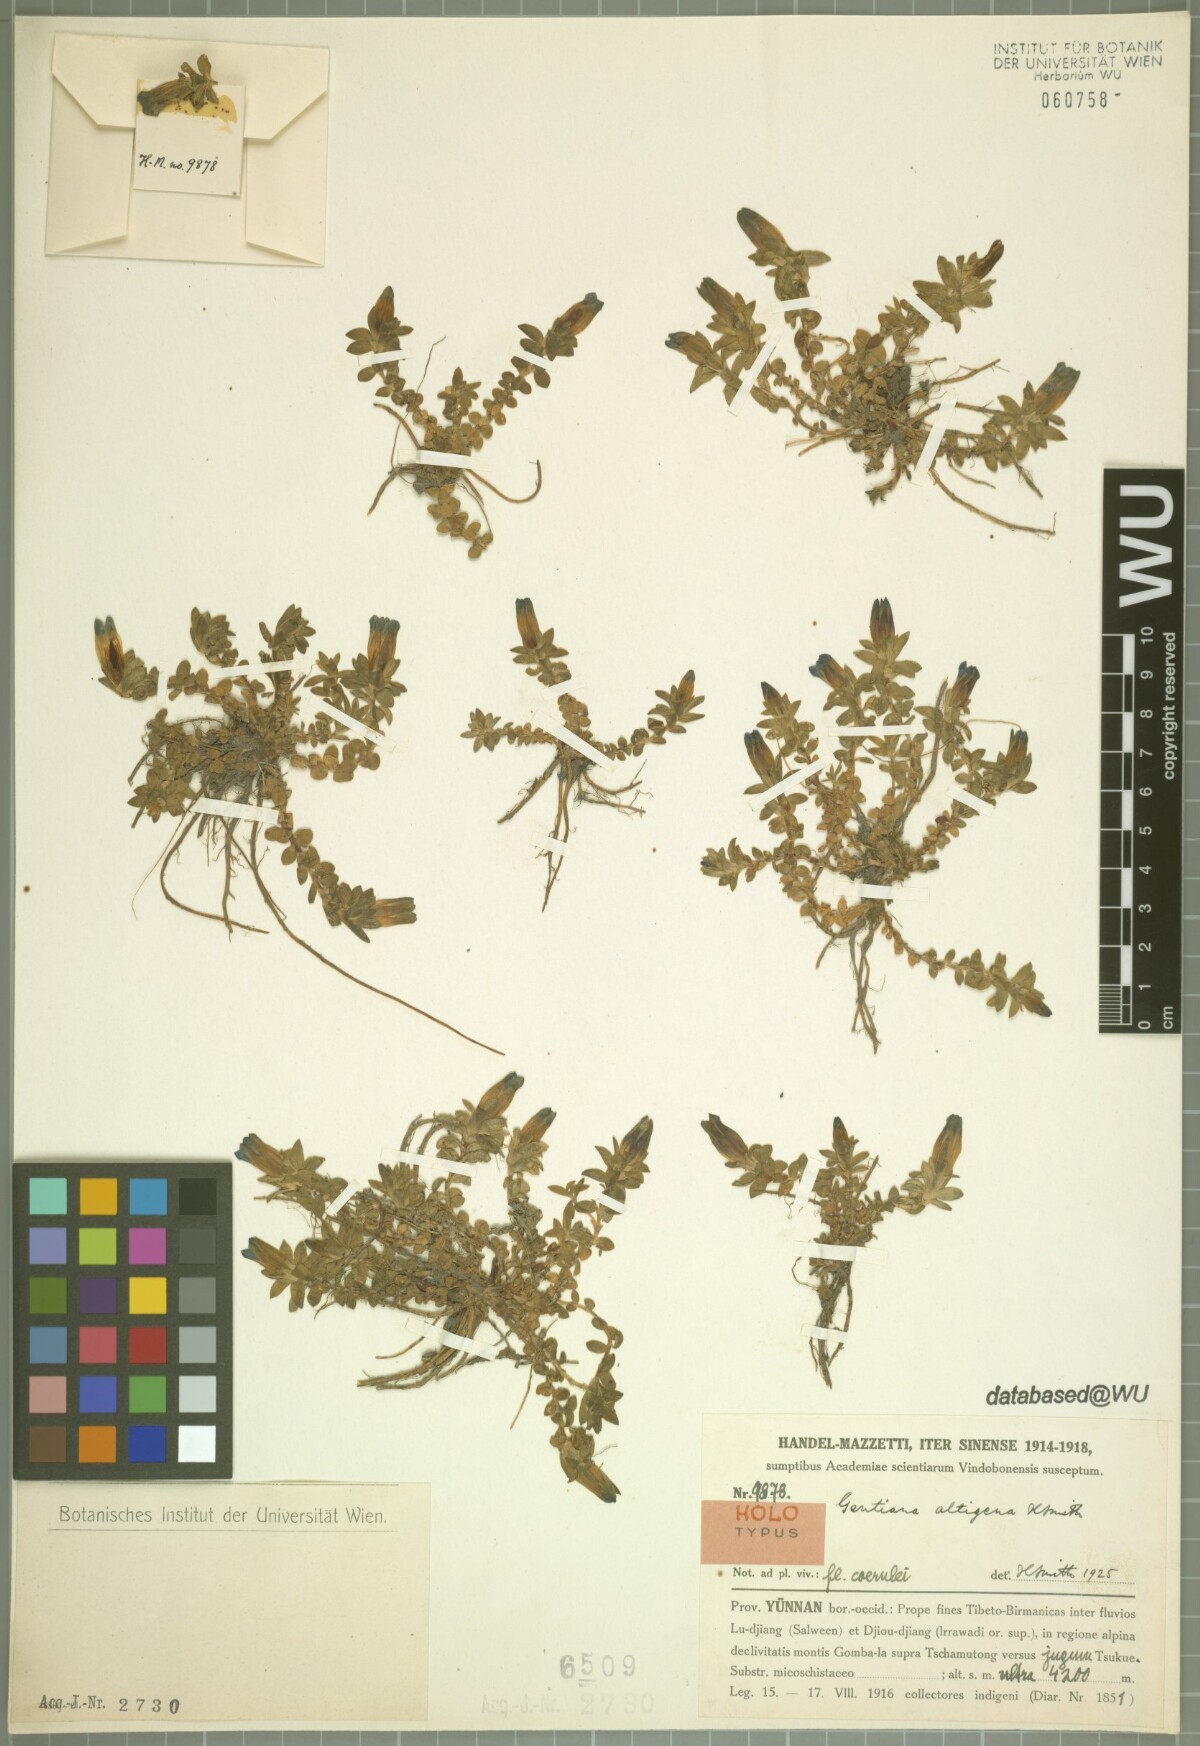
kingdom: Plantae
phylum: Tracheophyta
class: Magnoliopsida
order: Gentianales
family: Gentianaceae
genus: Gentiana
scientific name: Gentiana altigena
